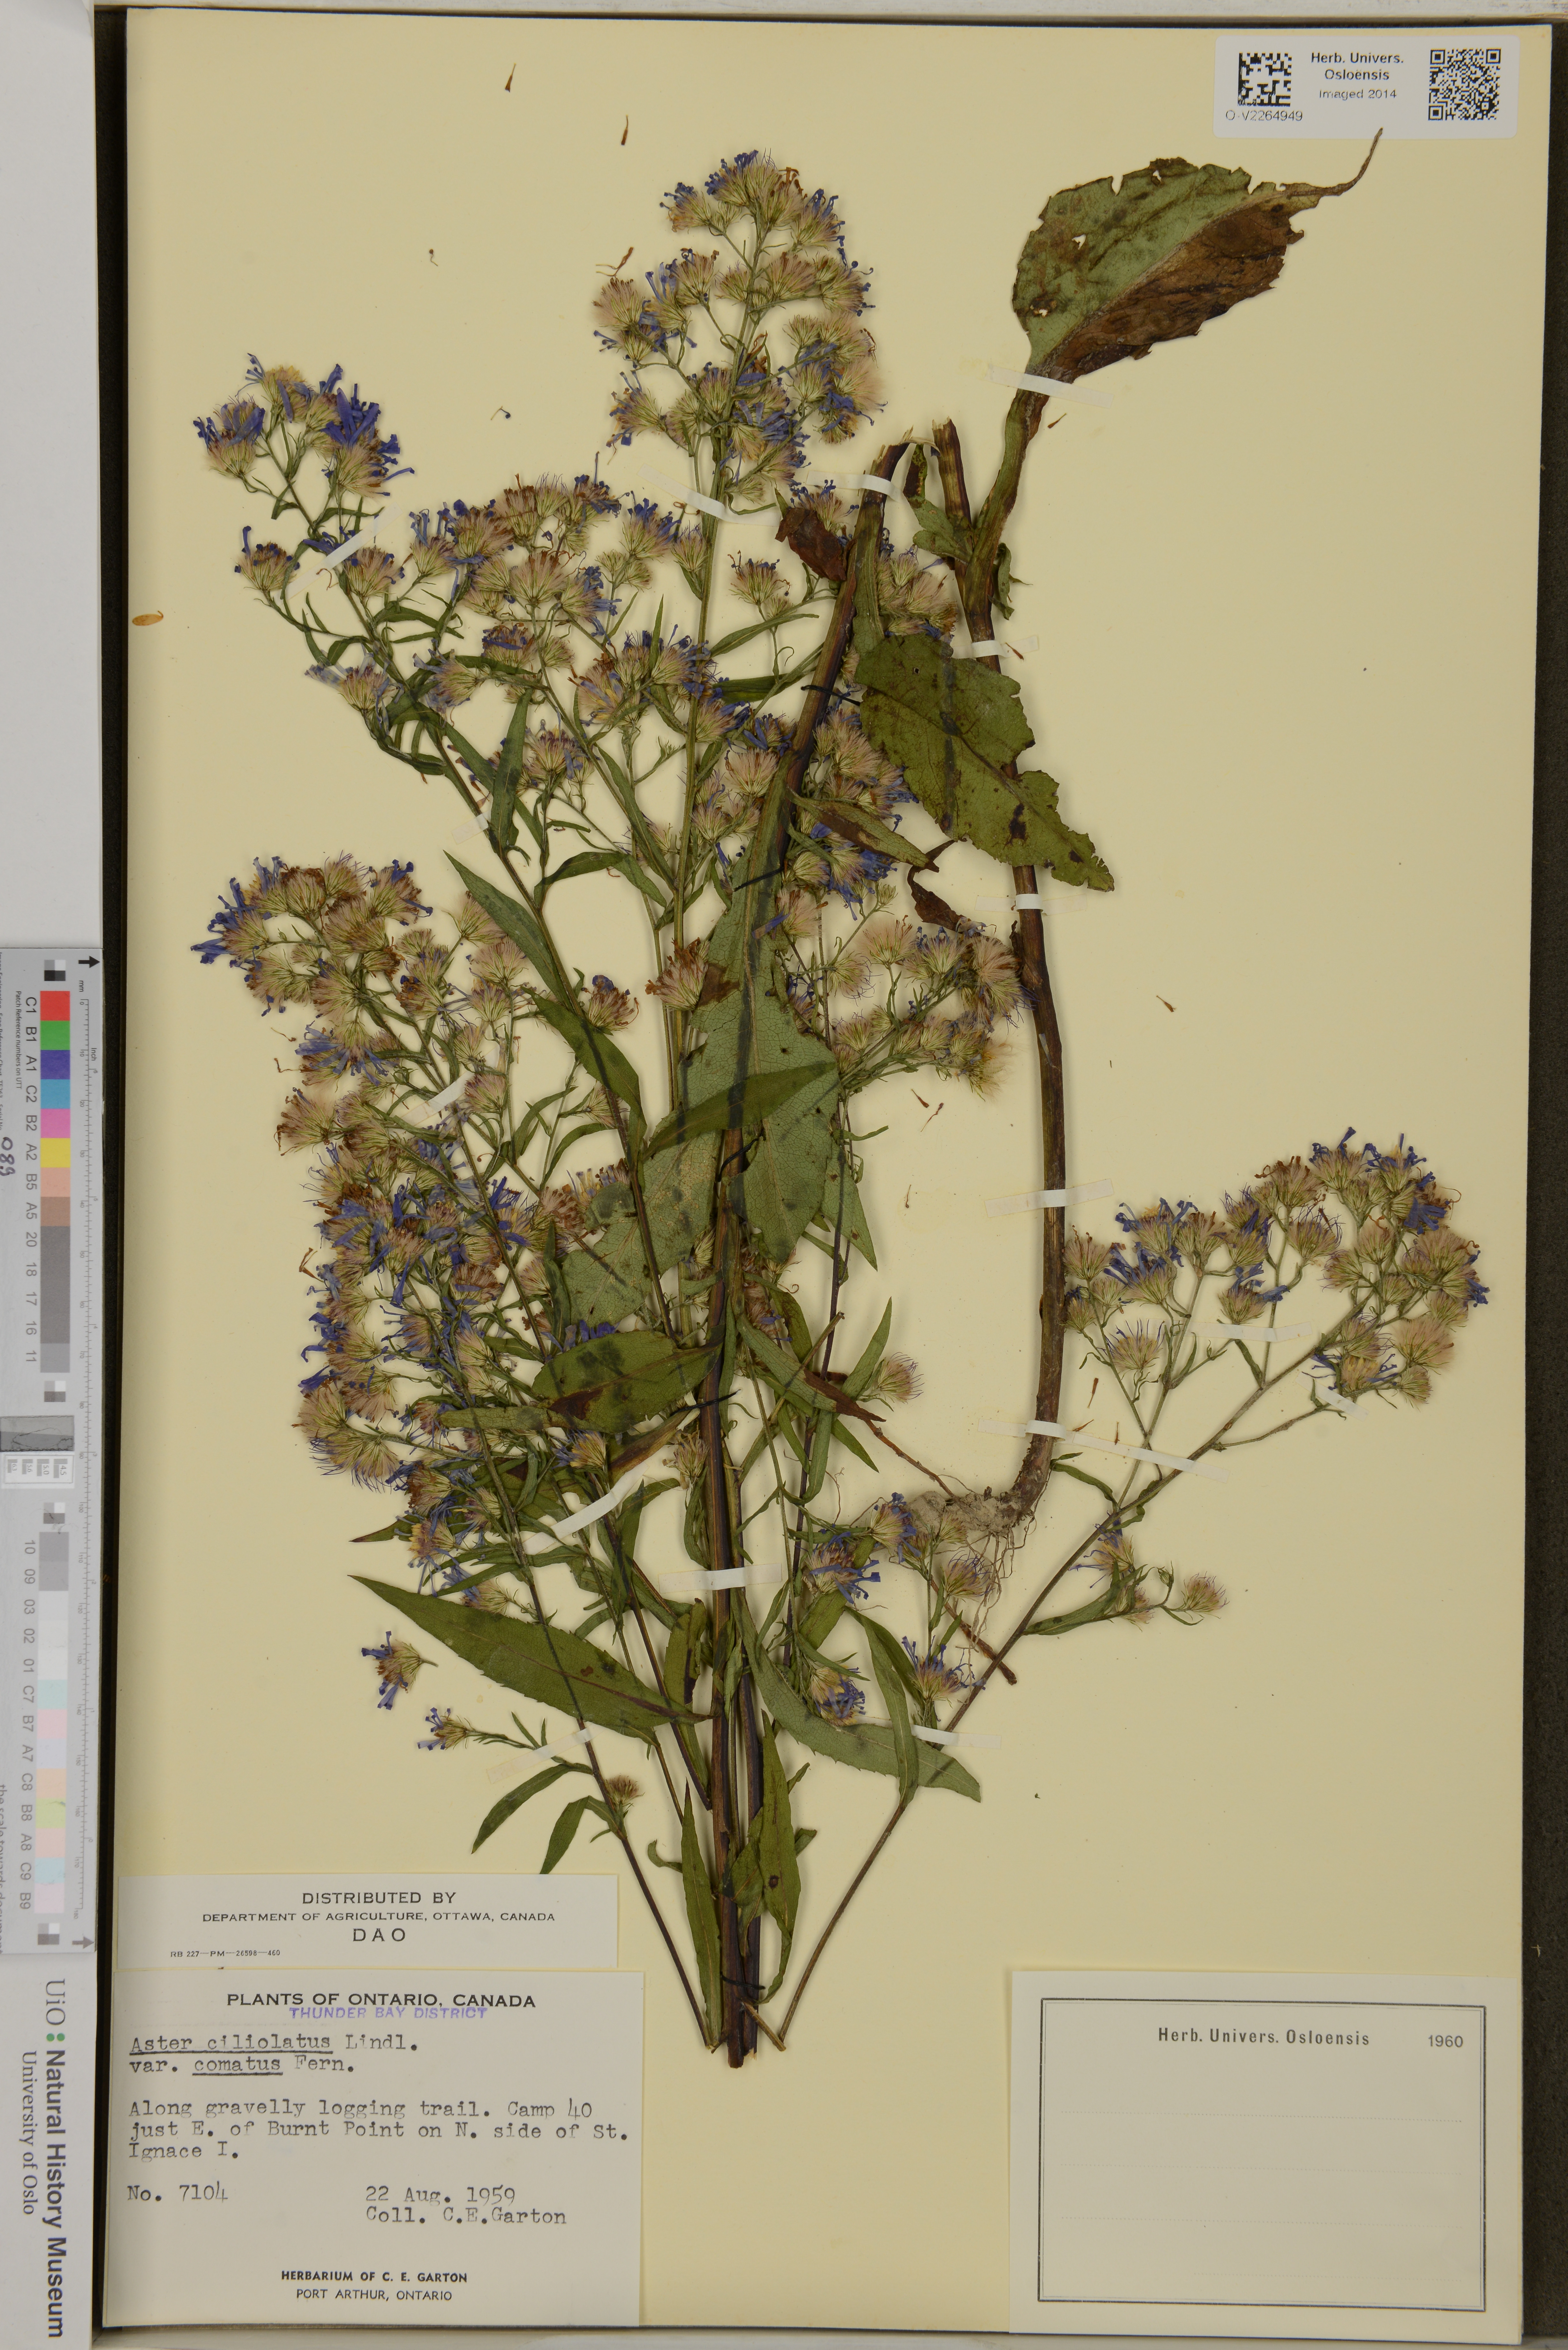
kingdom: Plantae
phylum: Tracheophyta
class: Magnoliopsida
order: Asterales
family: Asteraceae
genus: Symphyotrichum
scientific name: Symphyotrichum ciliolatum
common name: Fringed blue aster
